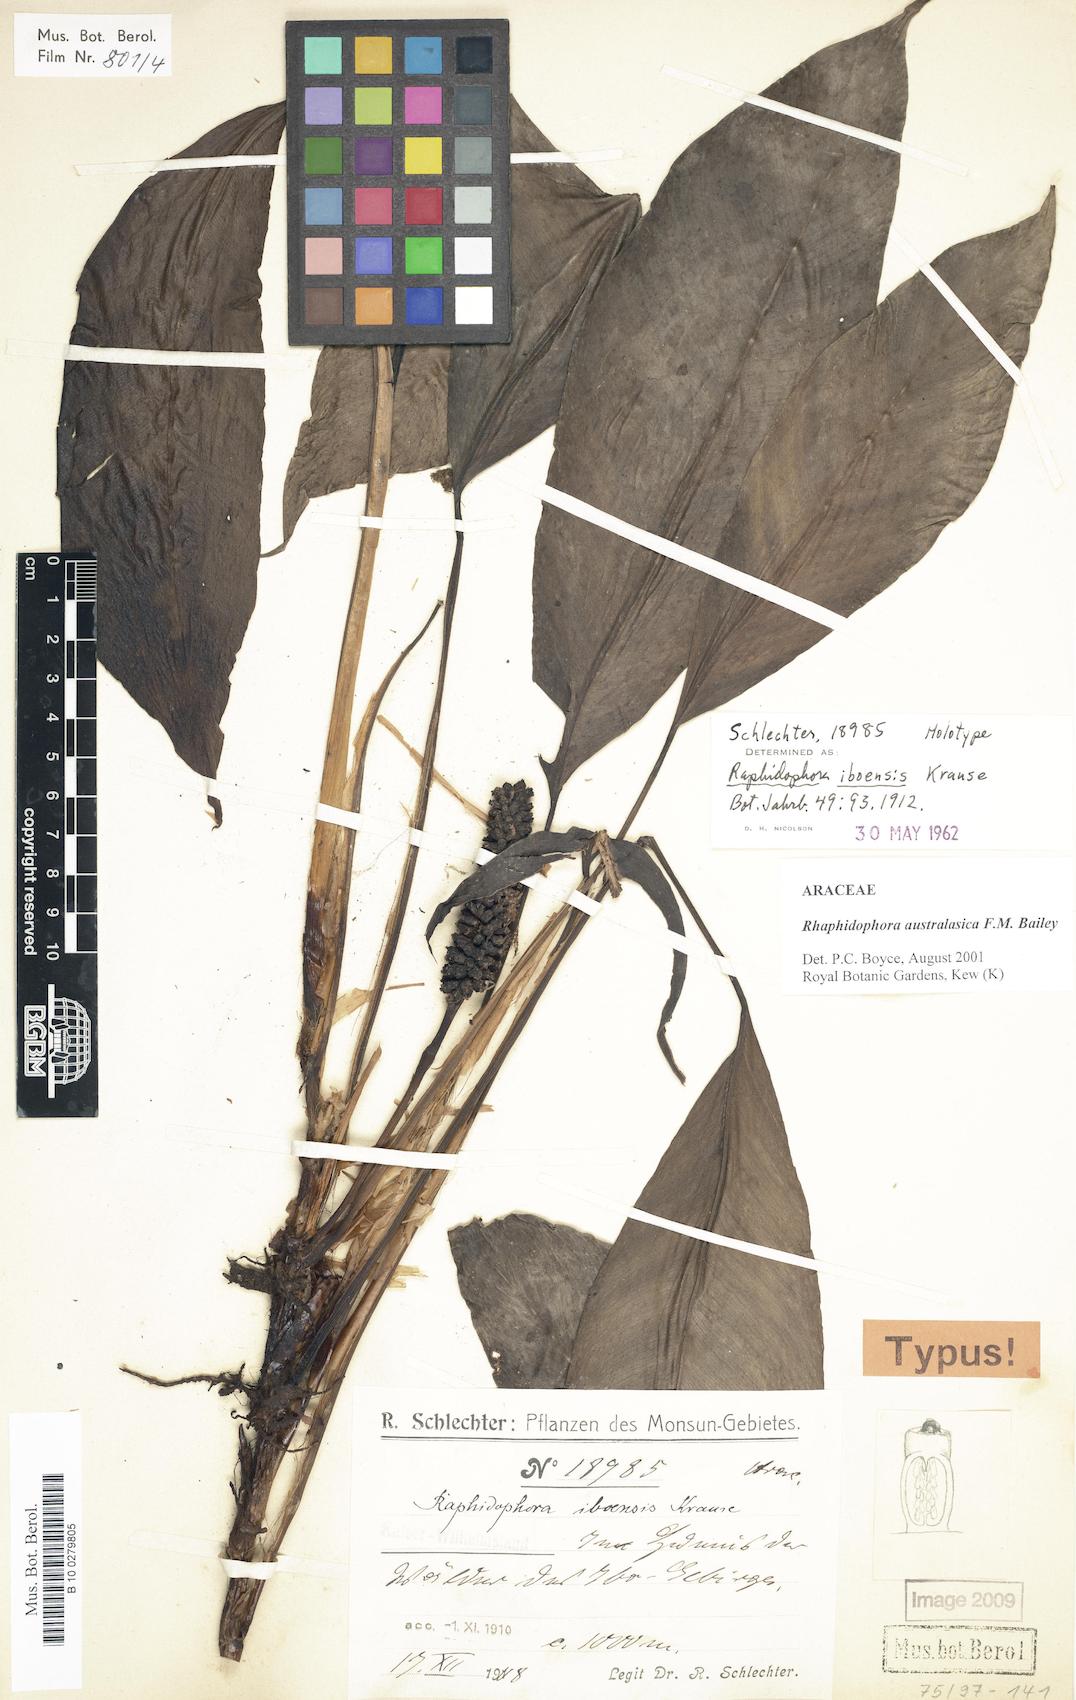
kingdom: Plantae
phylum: Tracheophyta
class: Liliopsida
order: Alismatales
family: Araceae
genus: Rhaphidophora
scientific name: Rhaphidophora australasica
